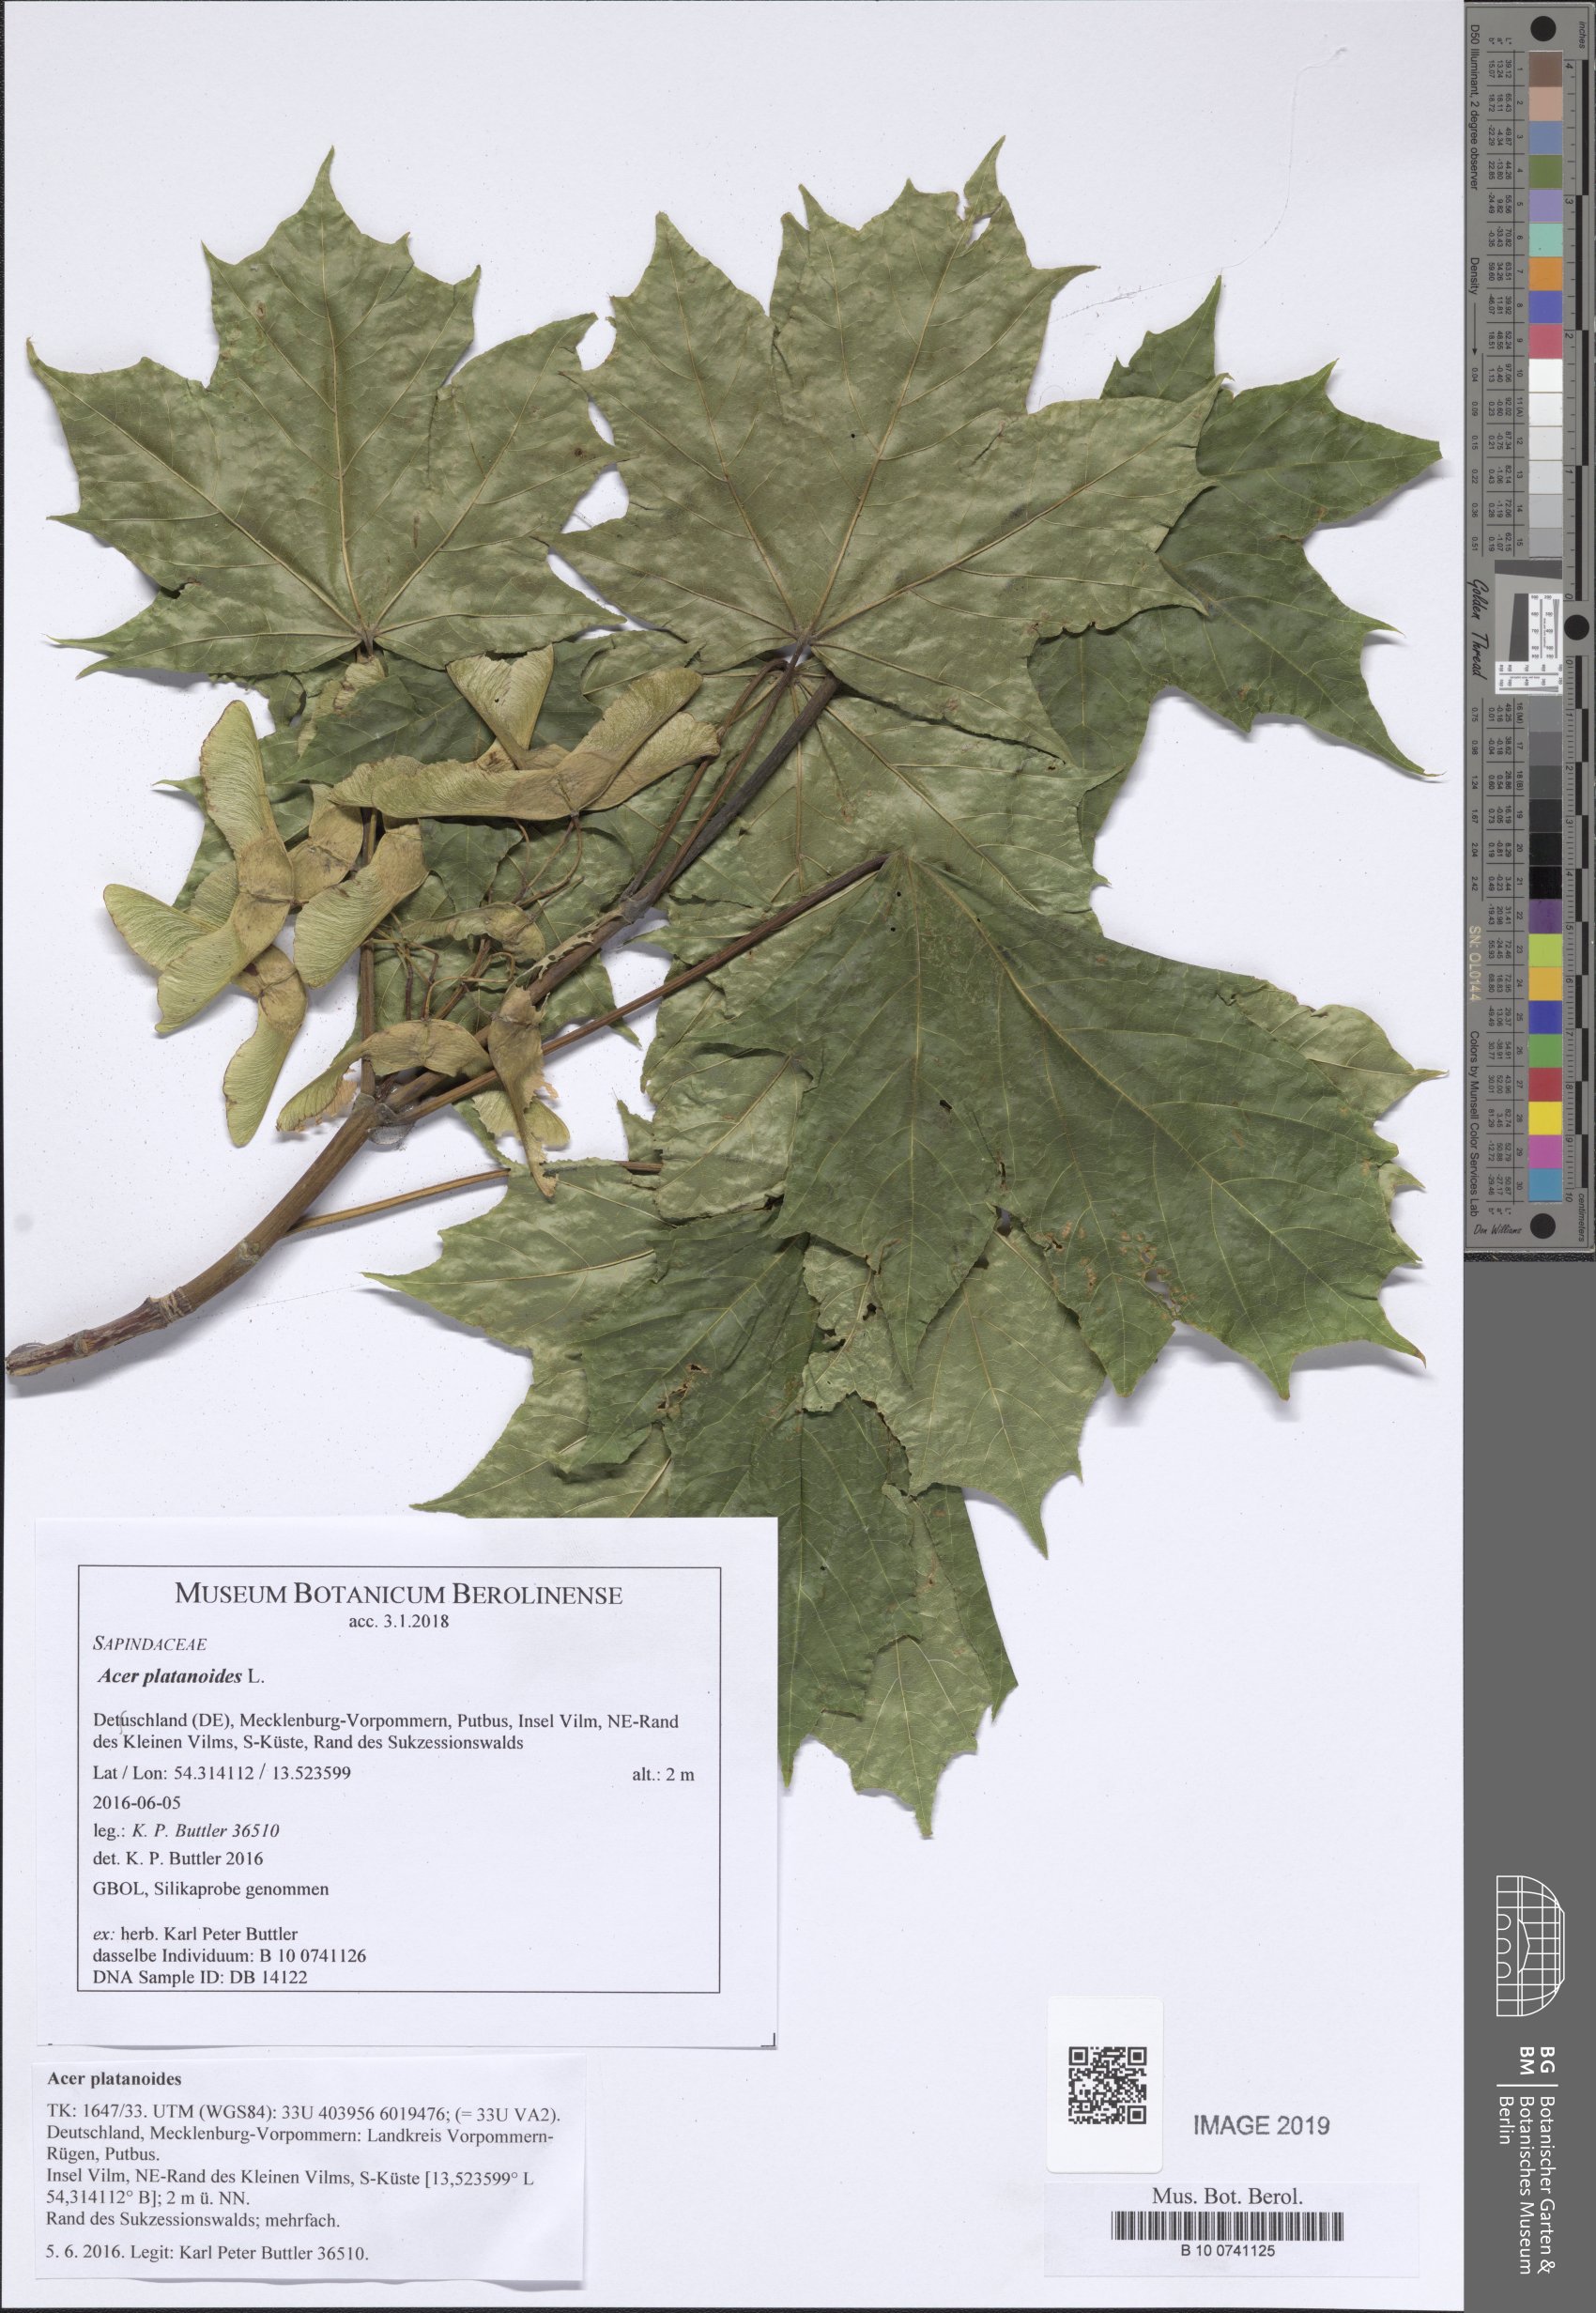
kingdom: Plantae
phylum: Tracheophyta
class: Magnoliopsida
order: Sapindales
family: Sapindaceae
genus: Acer
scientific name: Acer platanoides
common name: Norway maple
